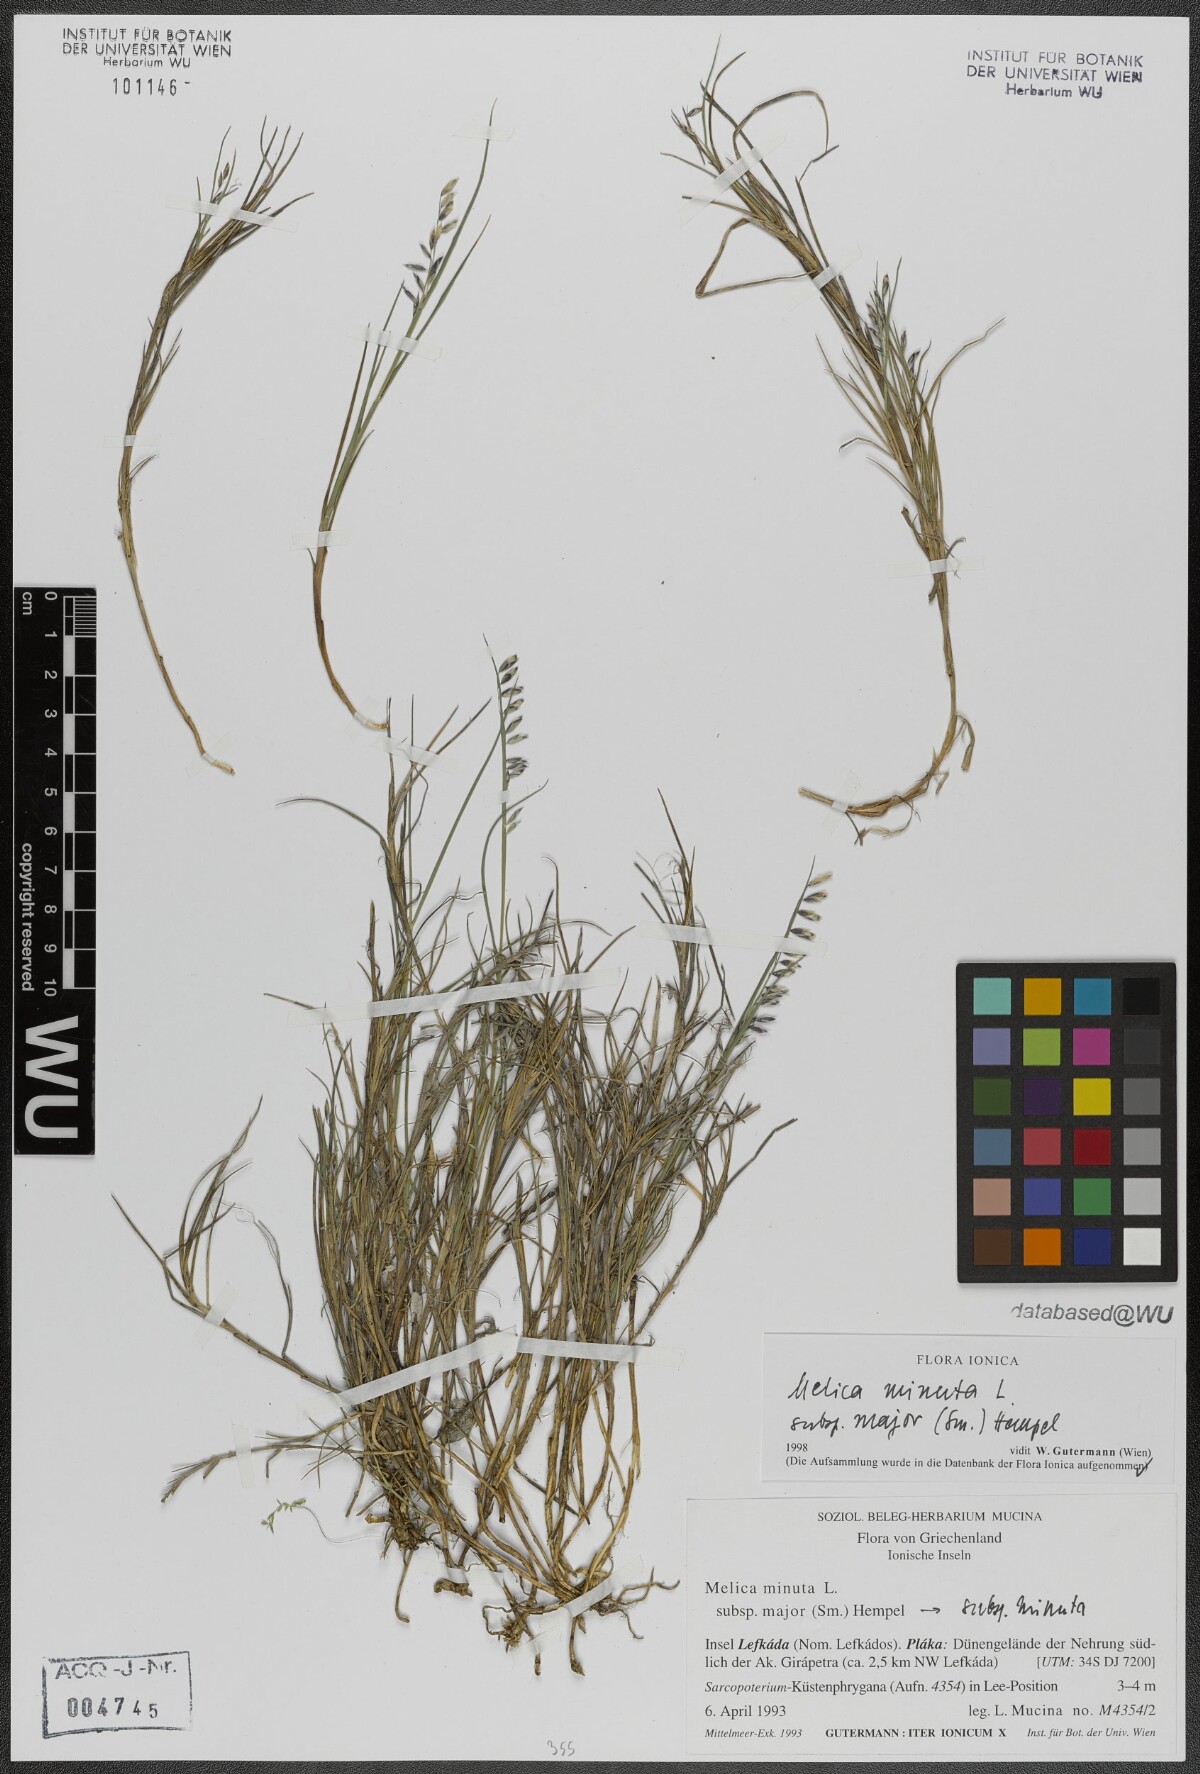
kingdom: Plantae
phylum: Tracheophyta
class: Liliopsida
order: Poales
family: Poaceae
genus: Melica
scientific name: Melica minuta
